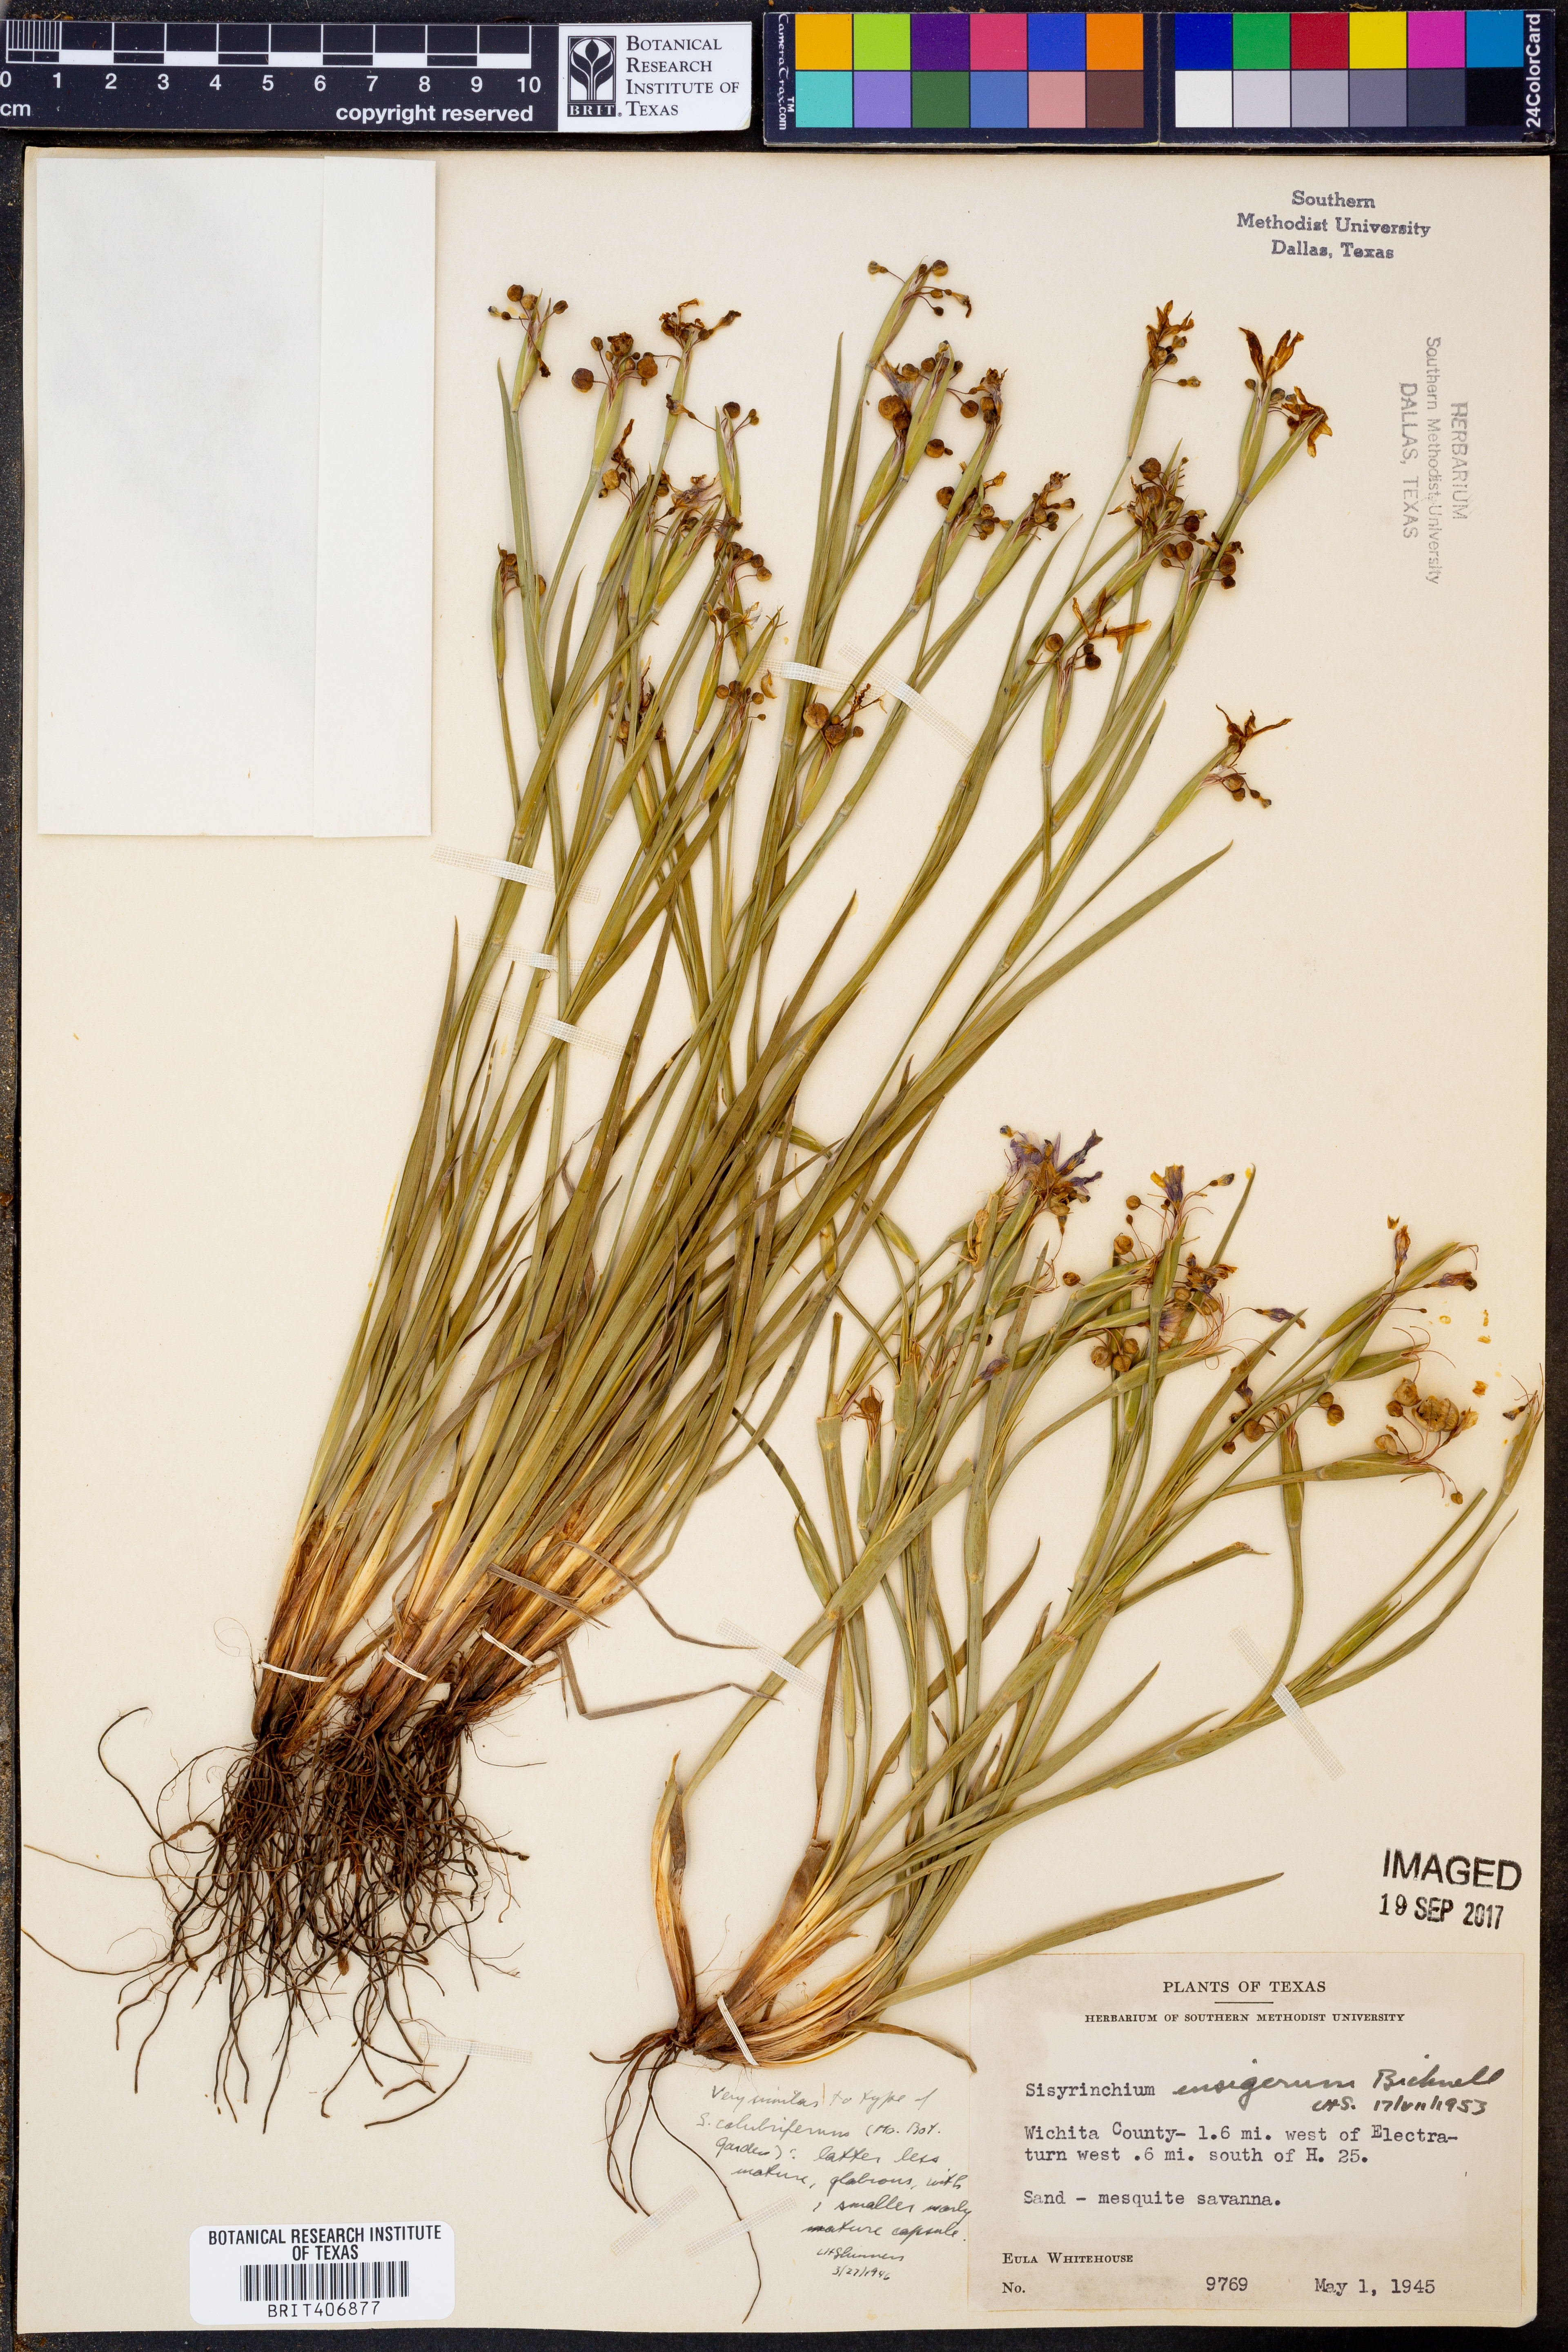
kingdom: Plantae
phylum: Tracheophyta
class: Liliopsida
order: Asparagales
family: Iridaceae
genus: Sisyrinchium
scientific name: Sisyrinchium ensigerum
